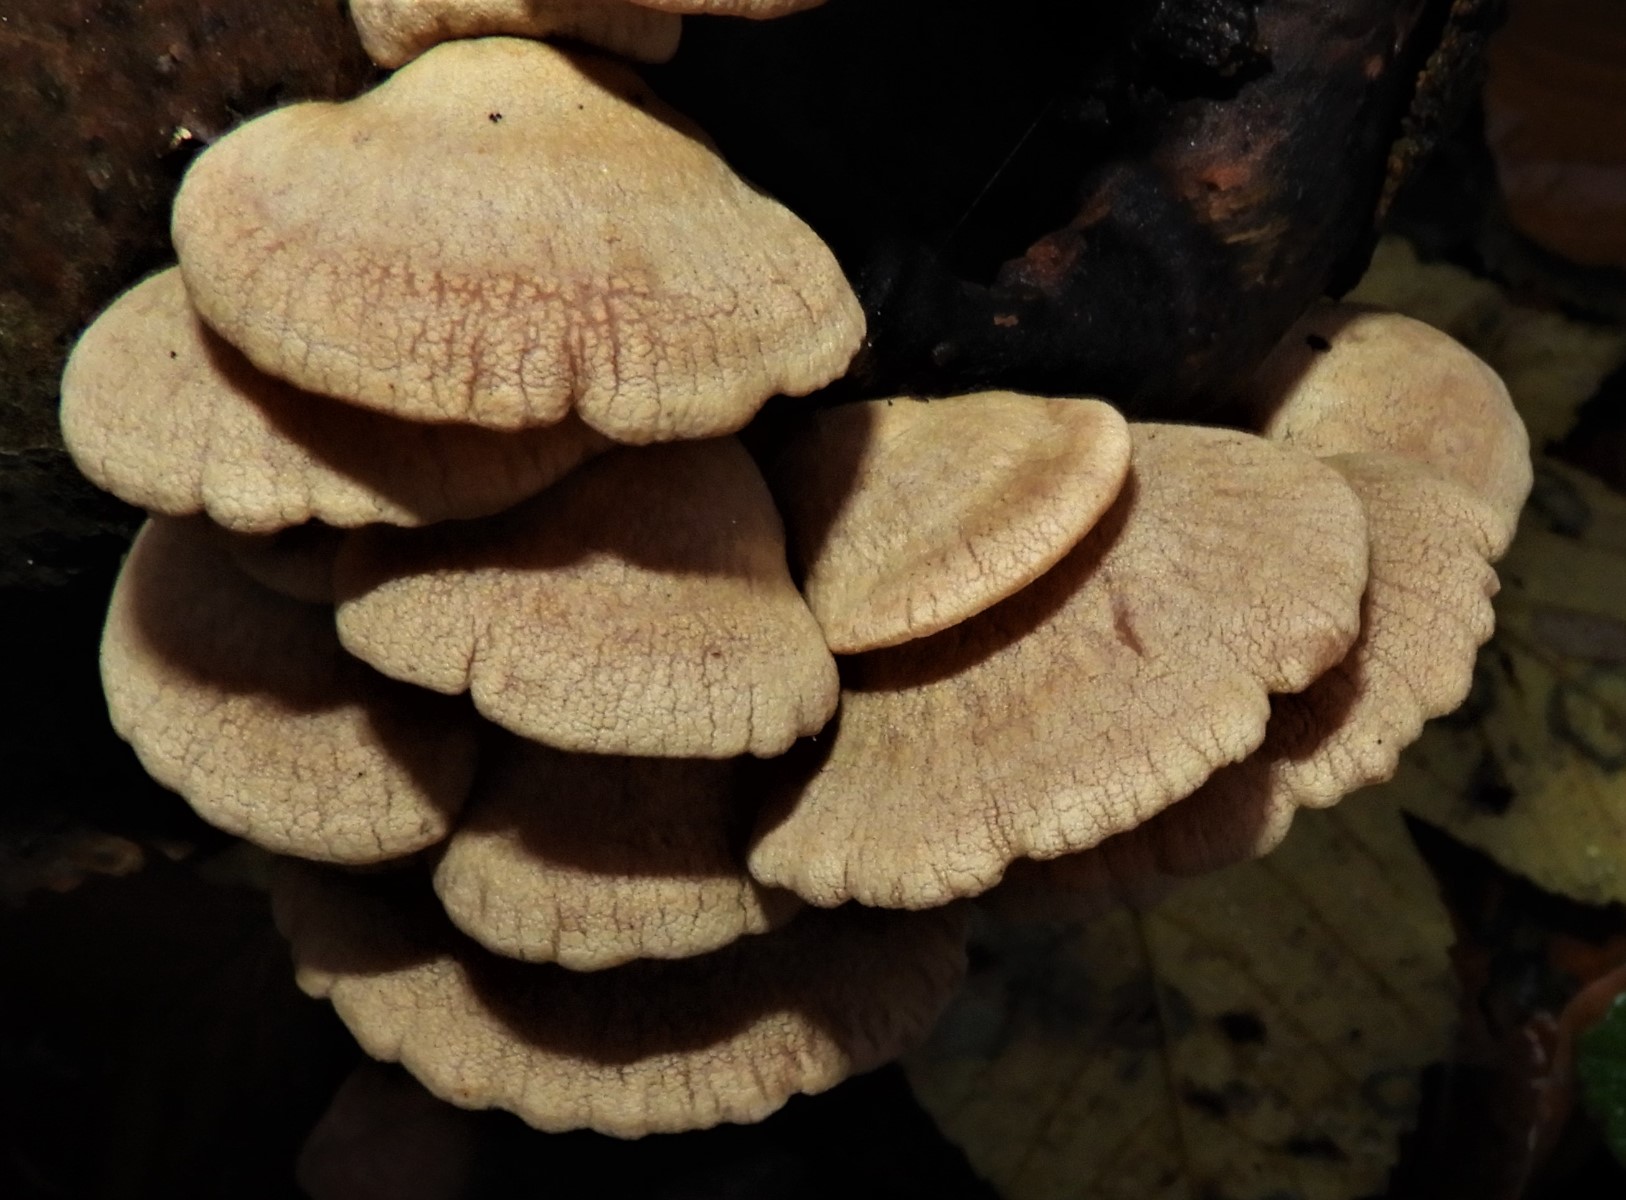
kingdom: Fungi
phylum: Basidiomycota
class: Agaricomycetes
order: Agaricales
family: Mycenaceae
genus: Panellus
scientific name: Panellus stipticus
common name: kliddet epaulethat
